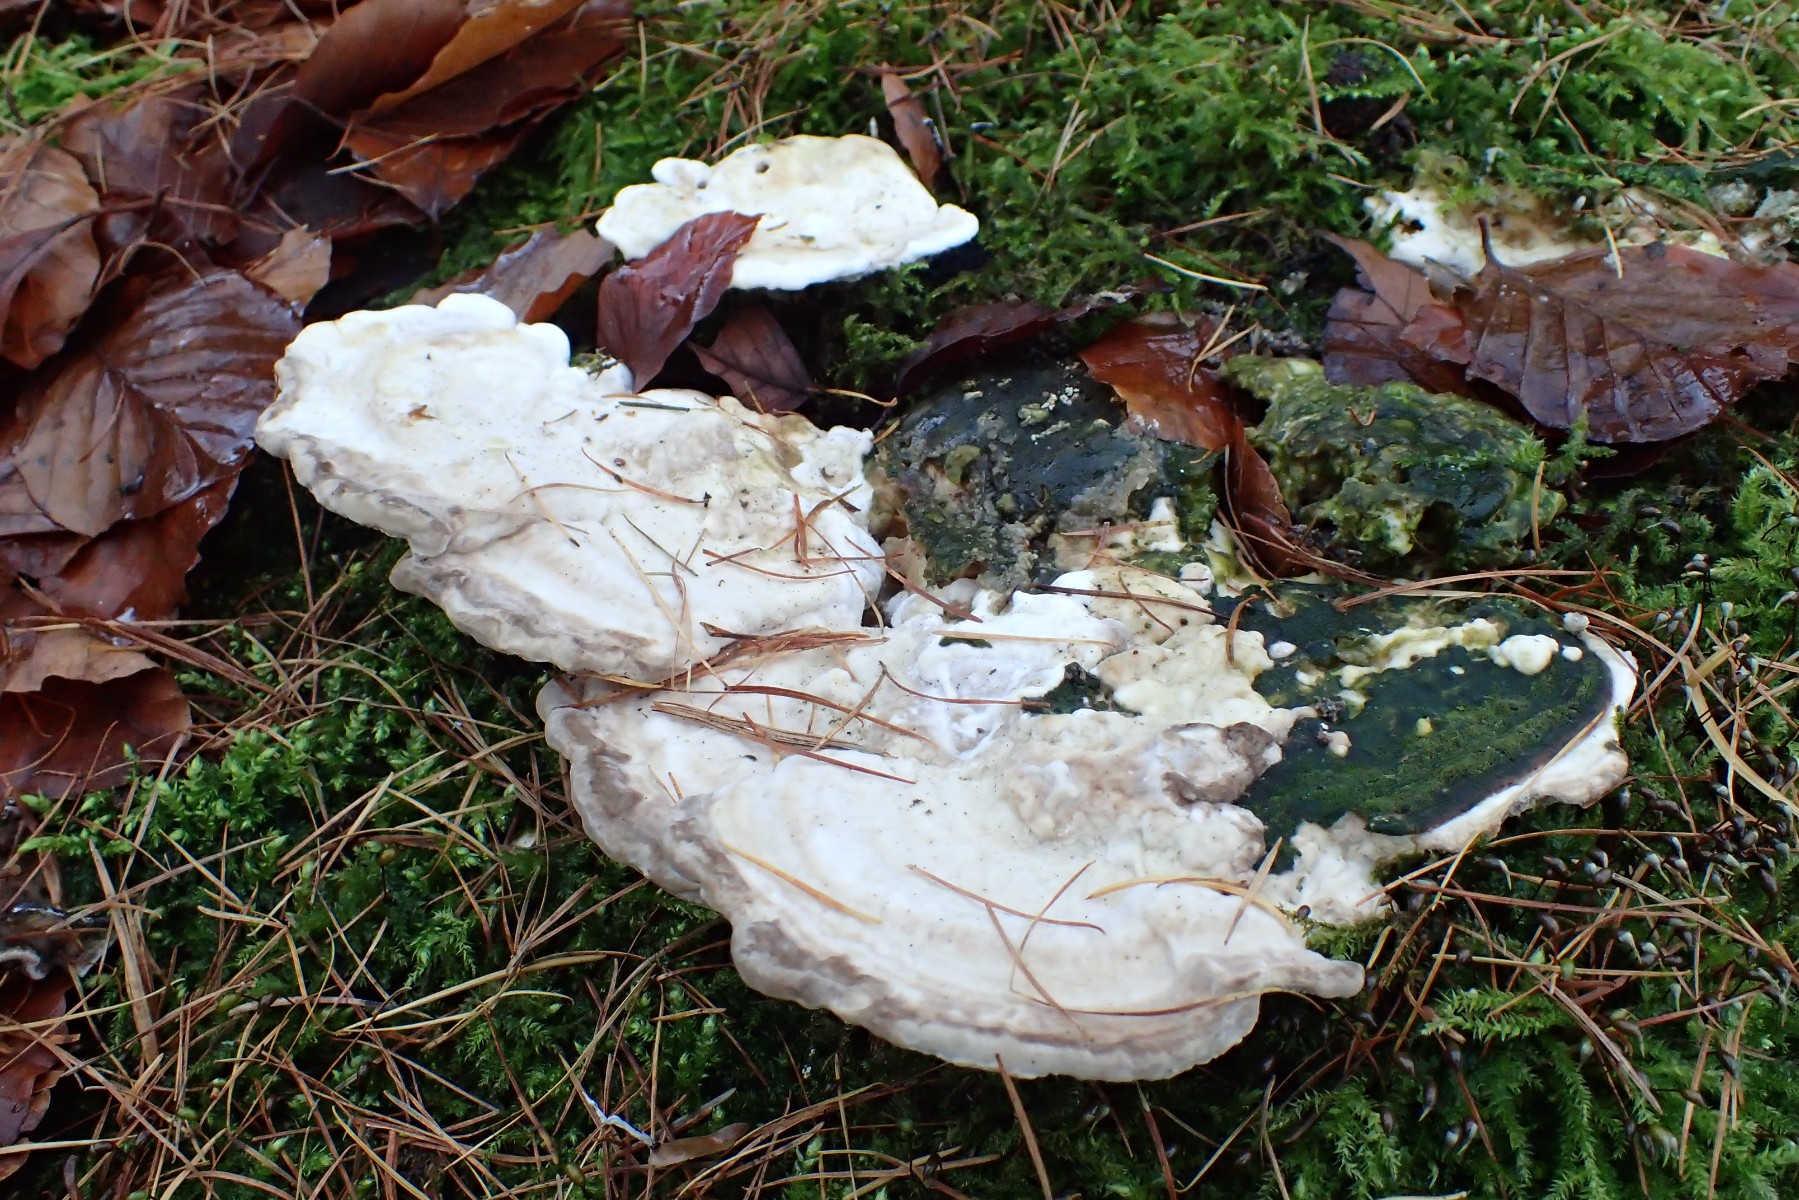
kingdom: Fungi
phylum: Basidiomycota
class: Agaricomycetes
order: Polyporales
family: Polyporaceae
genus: Trametes
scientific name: Trametes gibbosa
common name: puklet læderporesvamp
